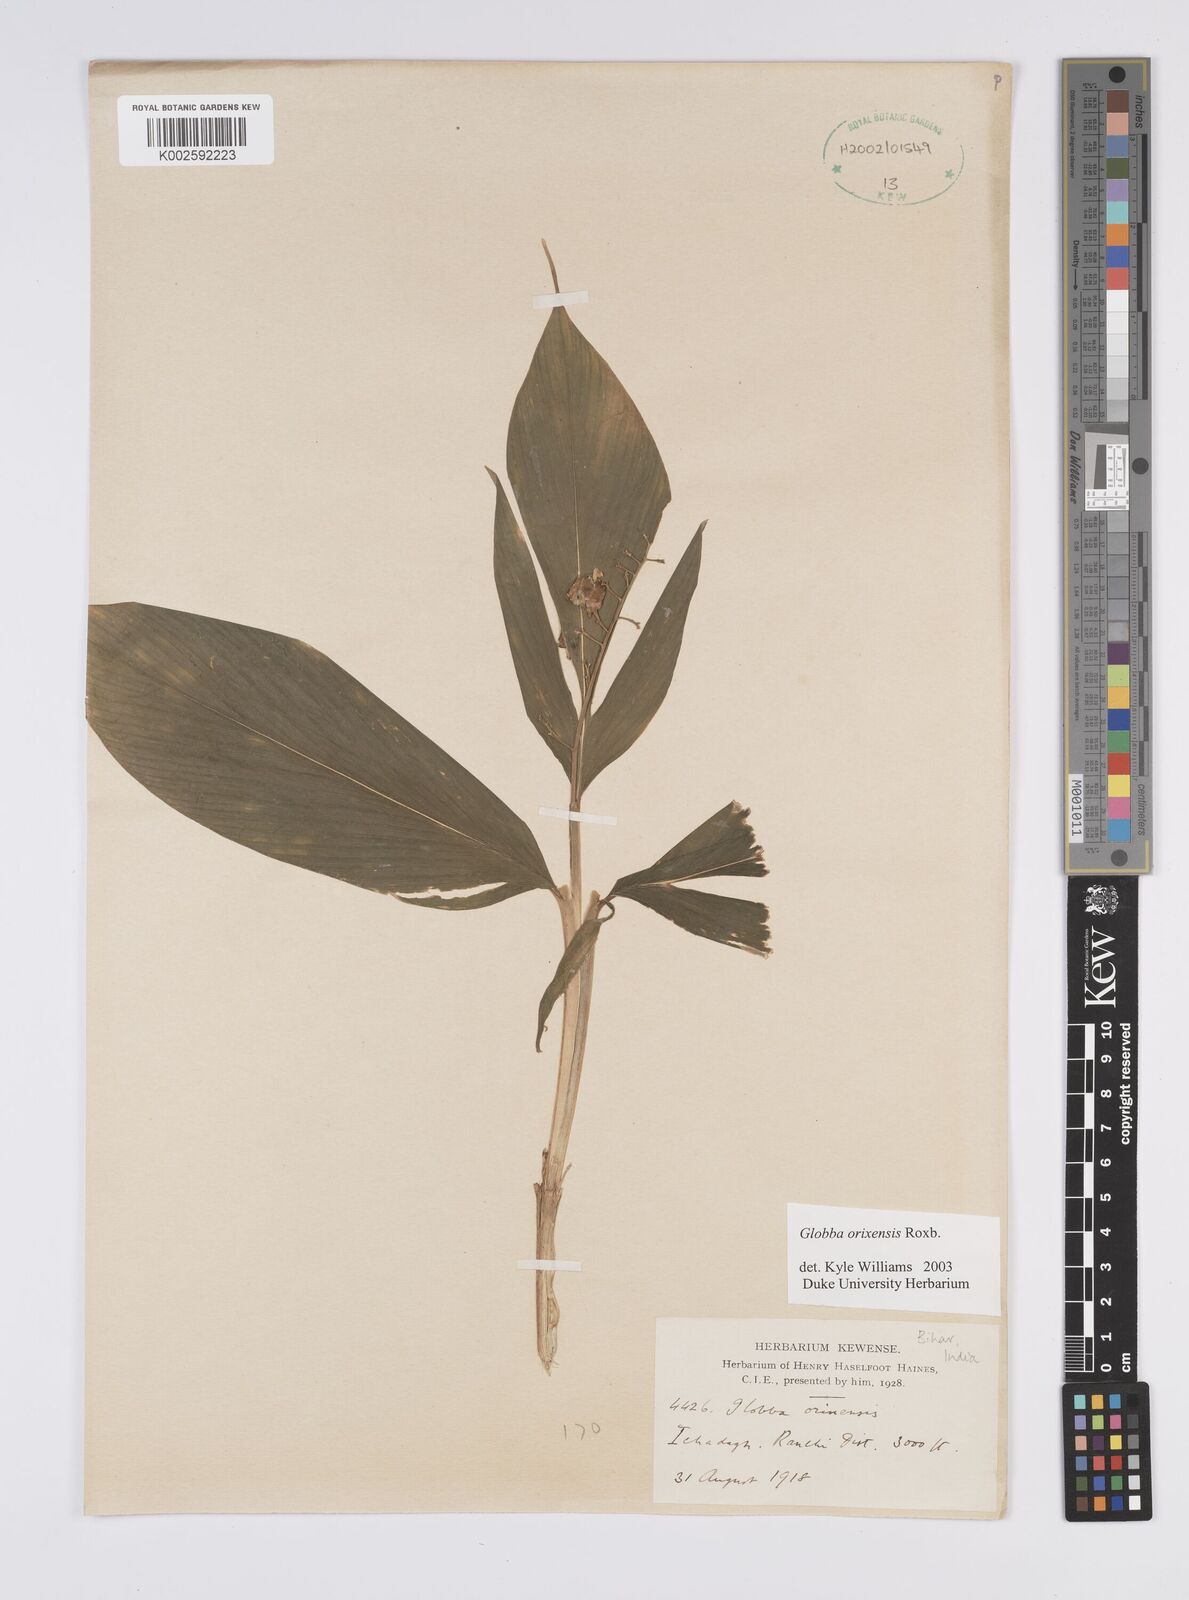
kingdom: Plantae
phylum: Tracheophyta
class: Liliopsida
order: Zingiberales
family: Zingiberaceae
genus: Globba
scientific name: Globba orixensis
